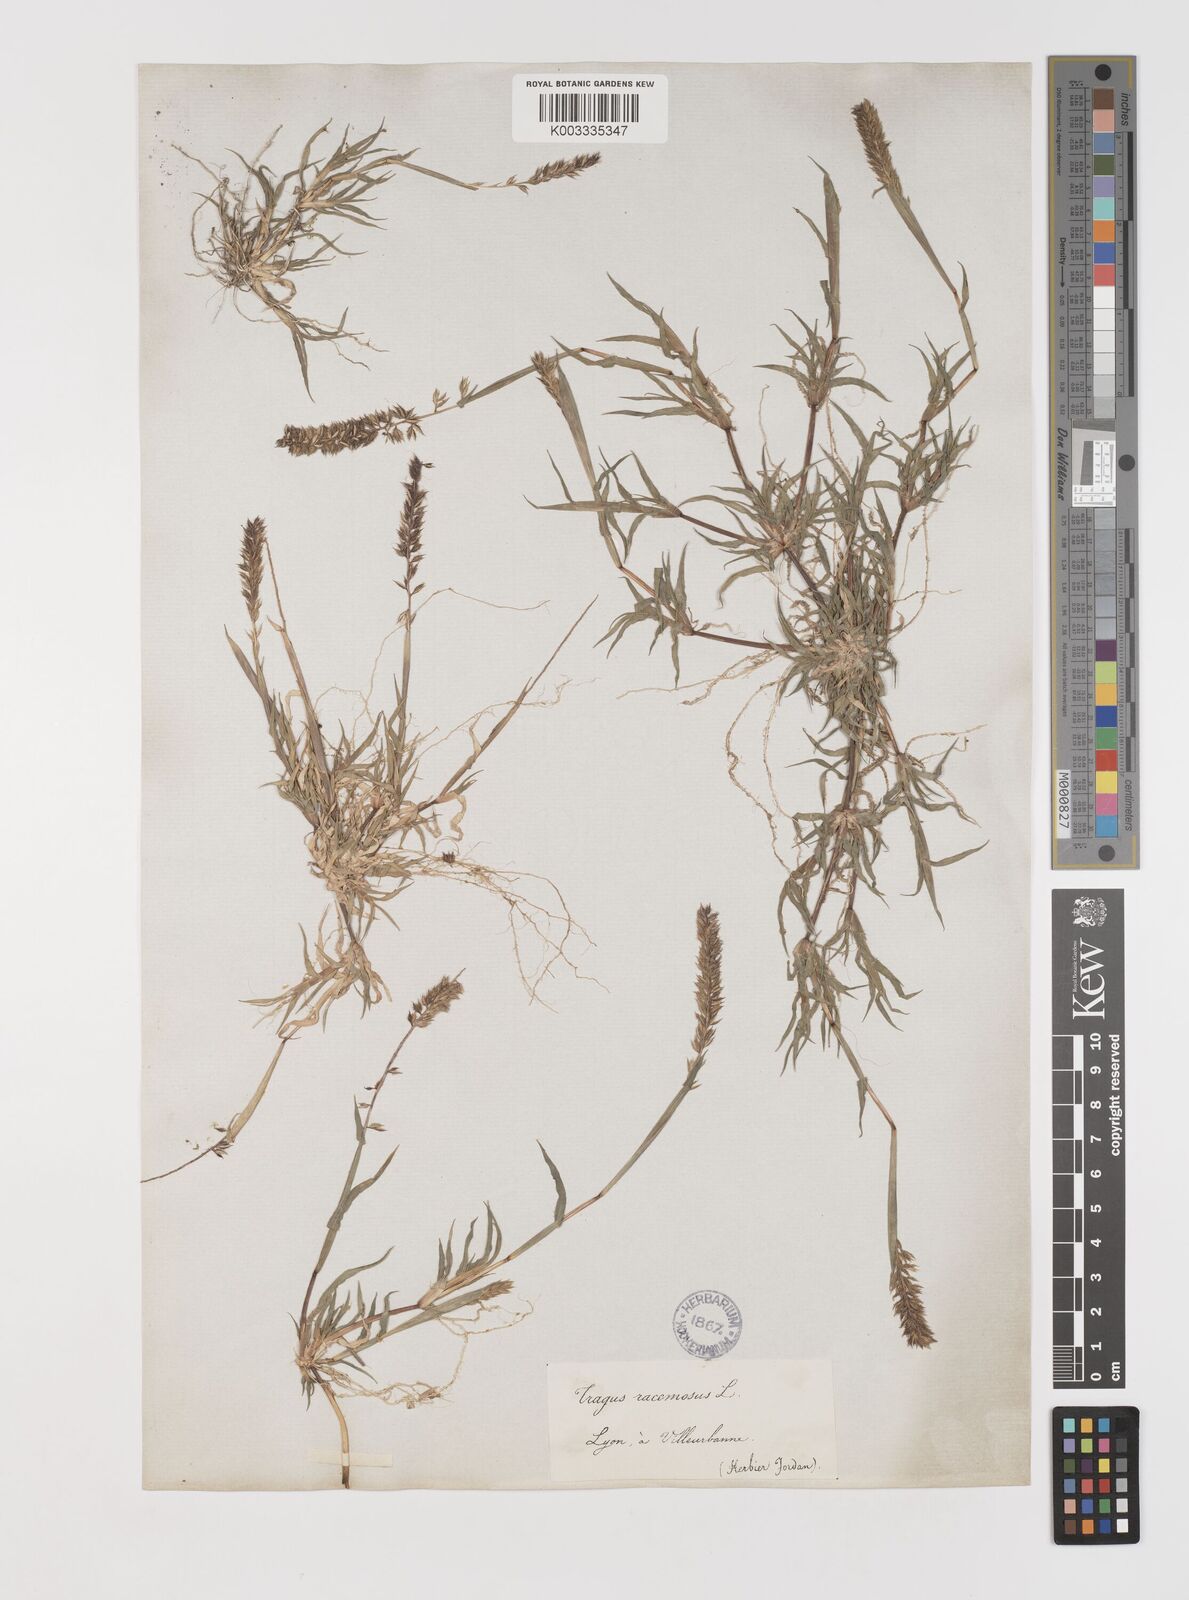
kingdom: Plantae
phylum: Tracheophyta
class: Liliopsida
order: Poales
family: Poaceae
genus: Tragus
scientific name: Tragus racemosus
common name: European bur-grass
